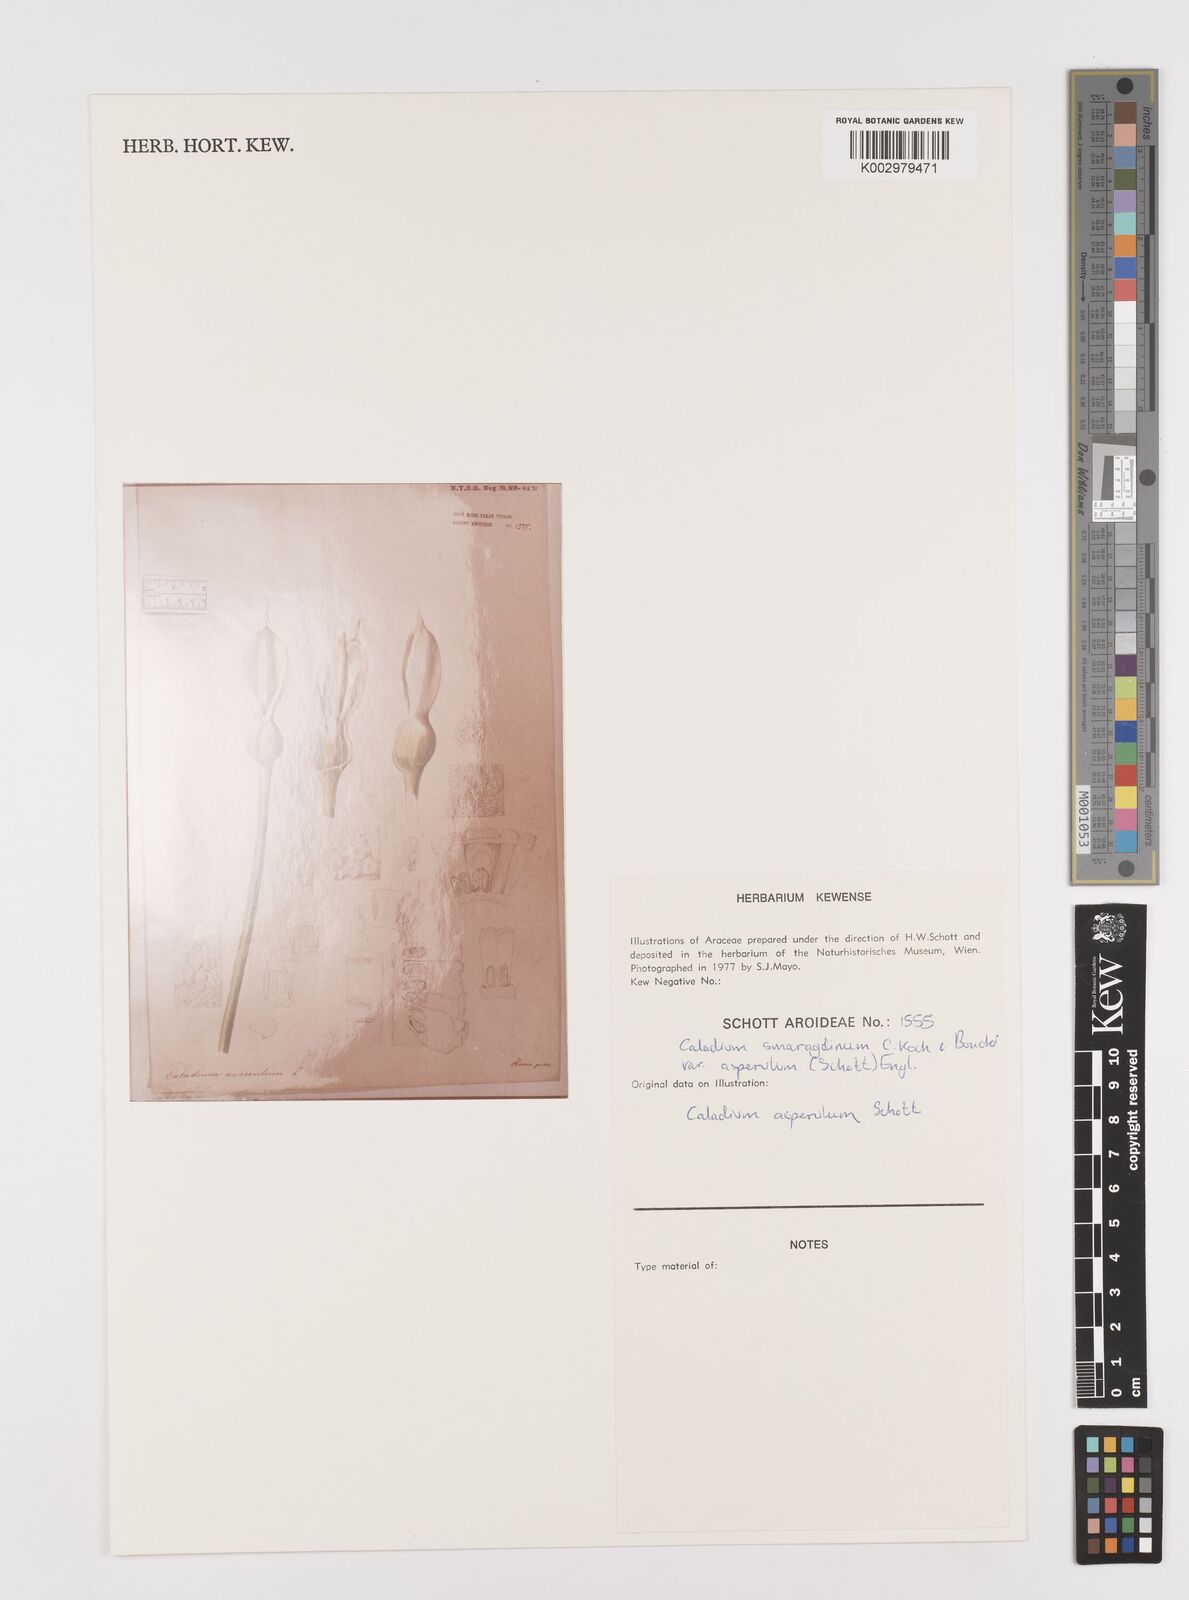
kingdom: Plantae
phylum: Tracheophyta
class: Liliopsida
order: Alismatales
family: Araceae
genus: Caladium
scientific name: Caladium smaragdinum
